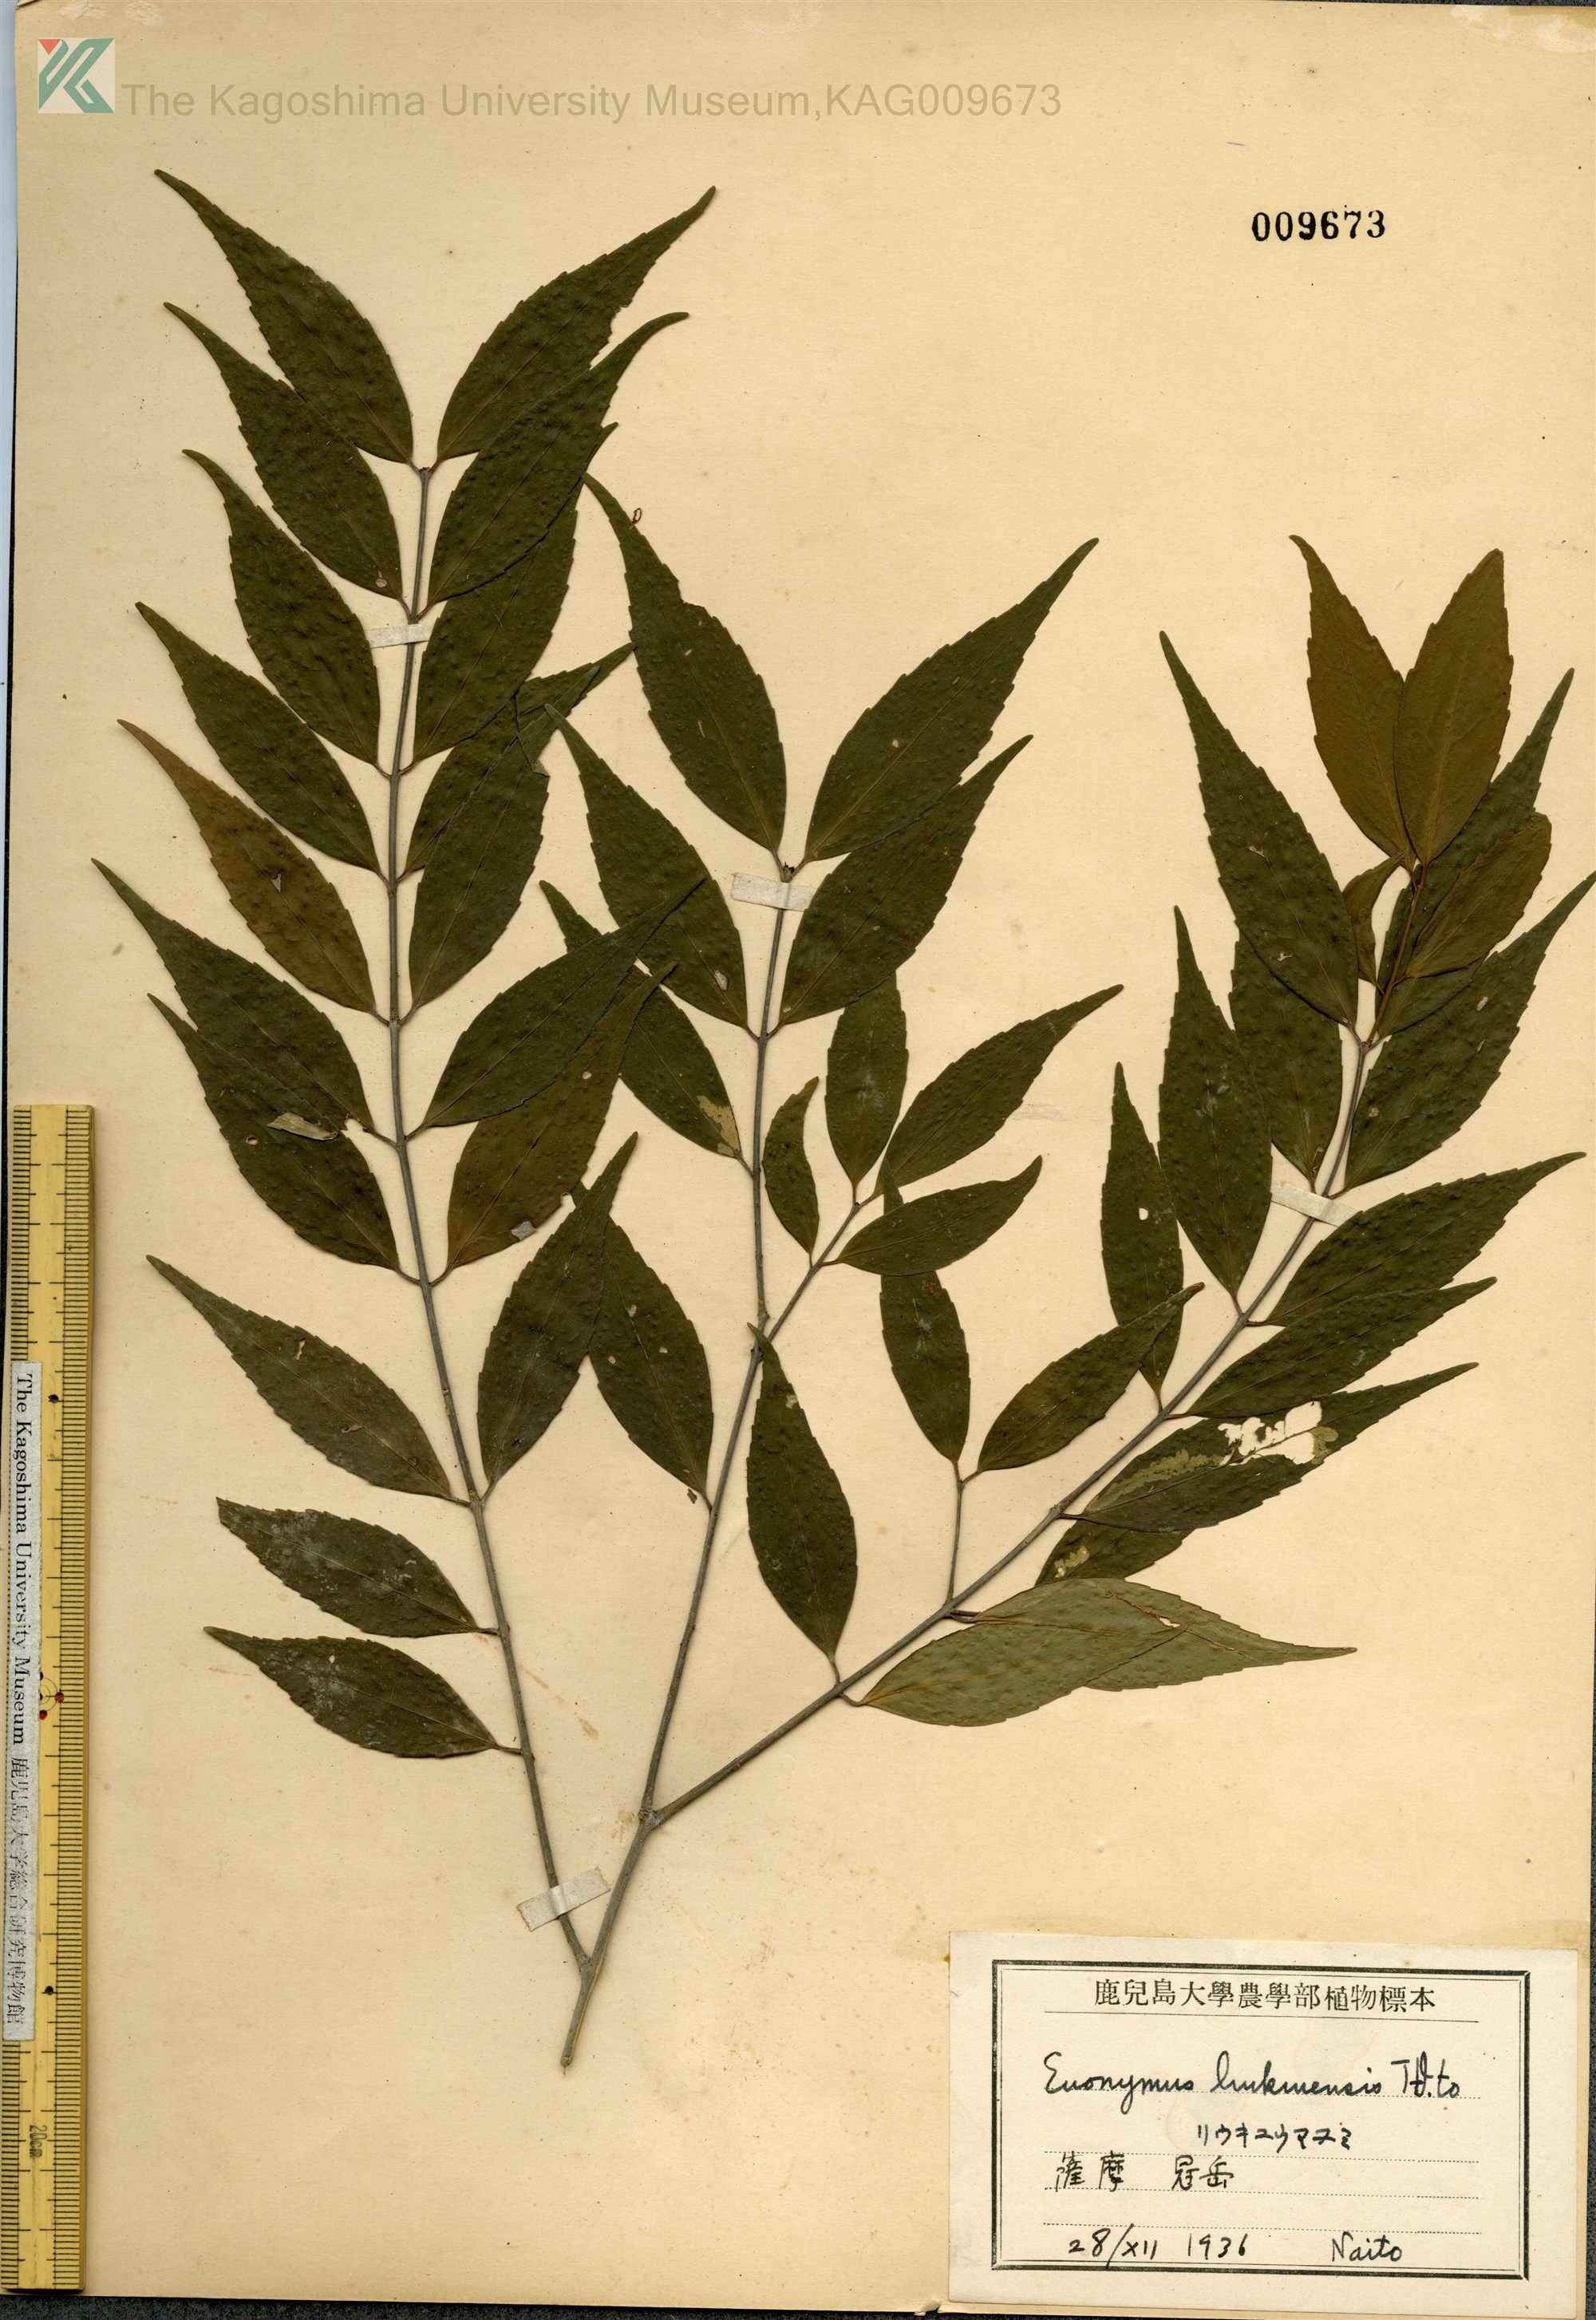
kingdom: Plantae
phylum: Tracheophyta
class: Magnoliopsida
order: Celastrales
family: Celastraceae
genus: Euonymus
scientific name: Euonymus lutchuensis
